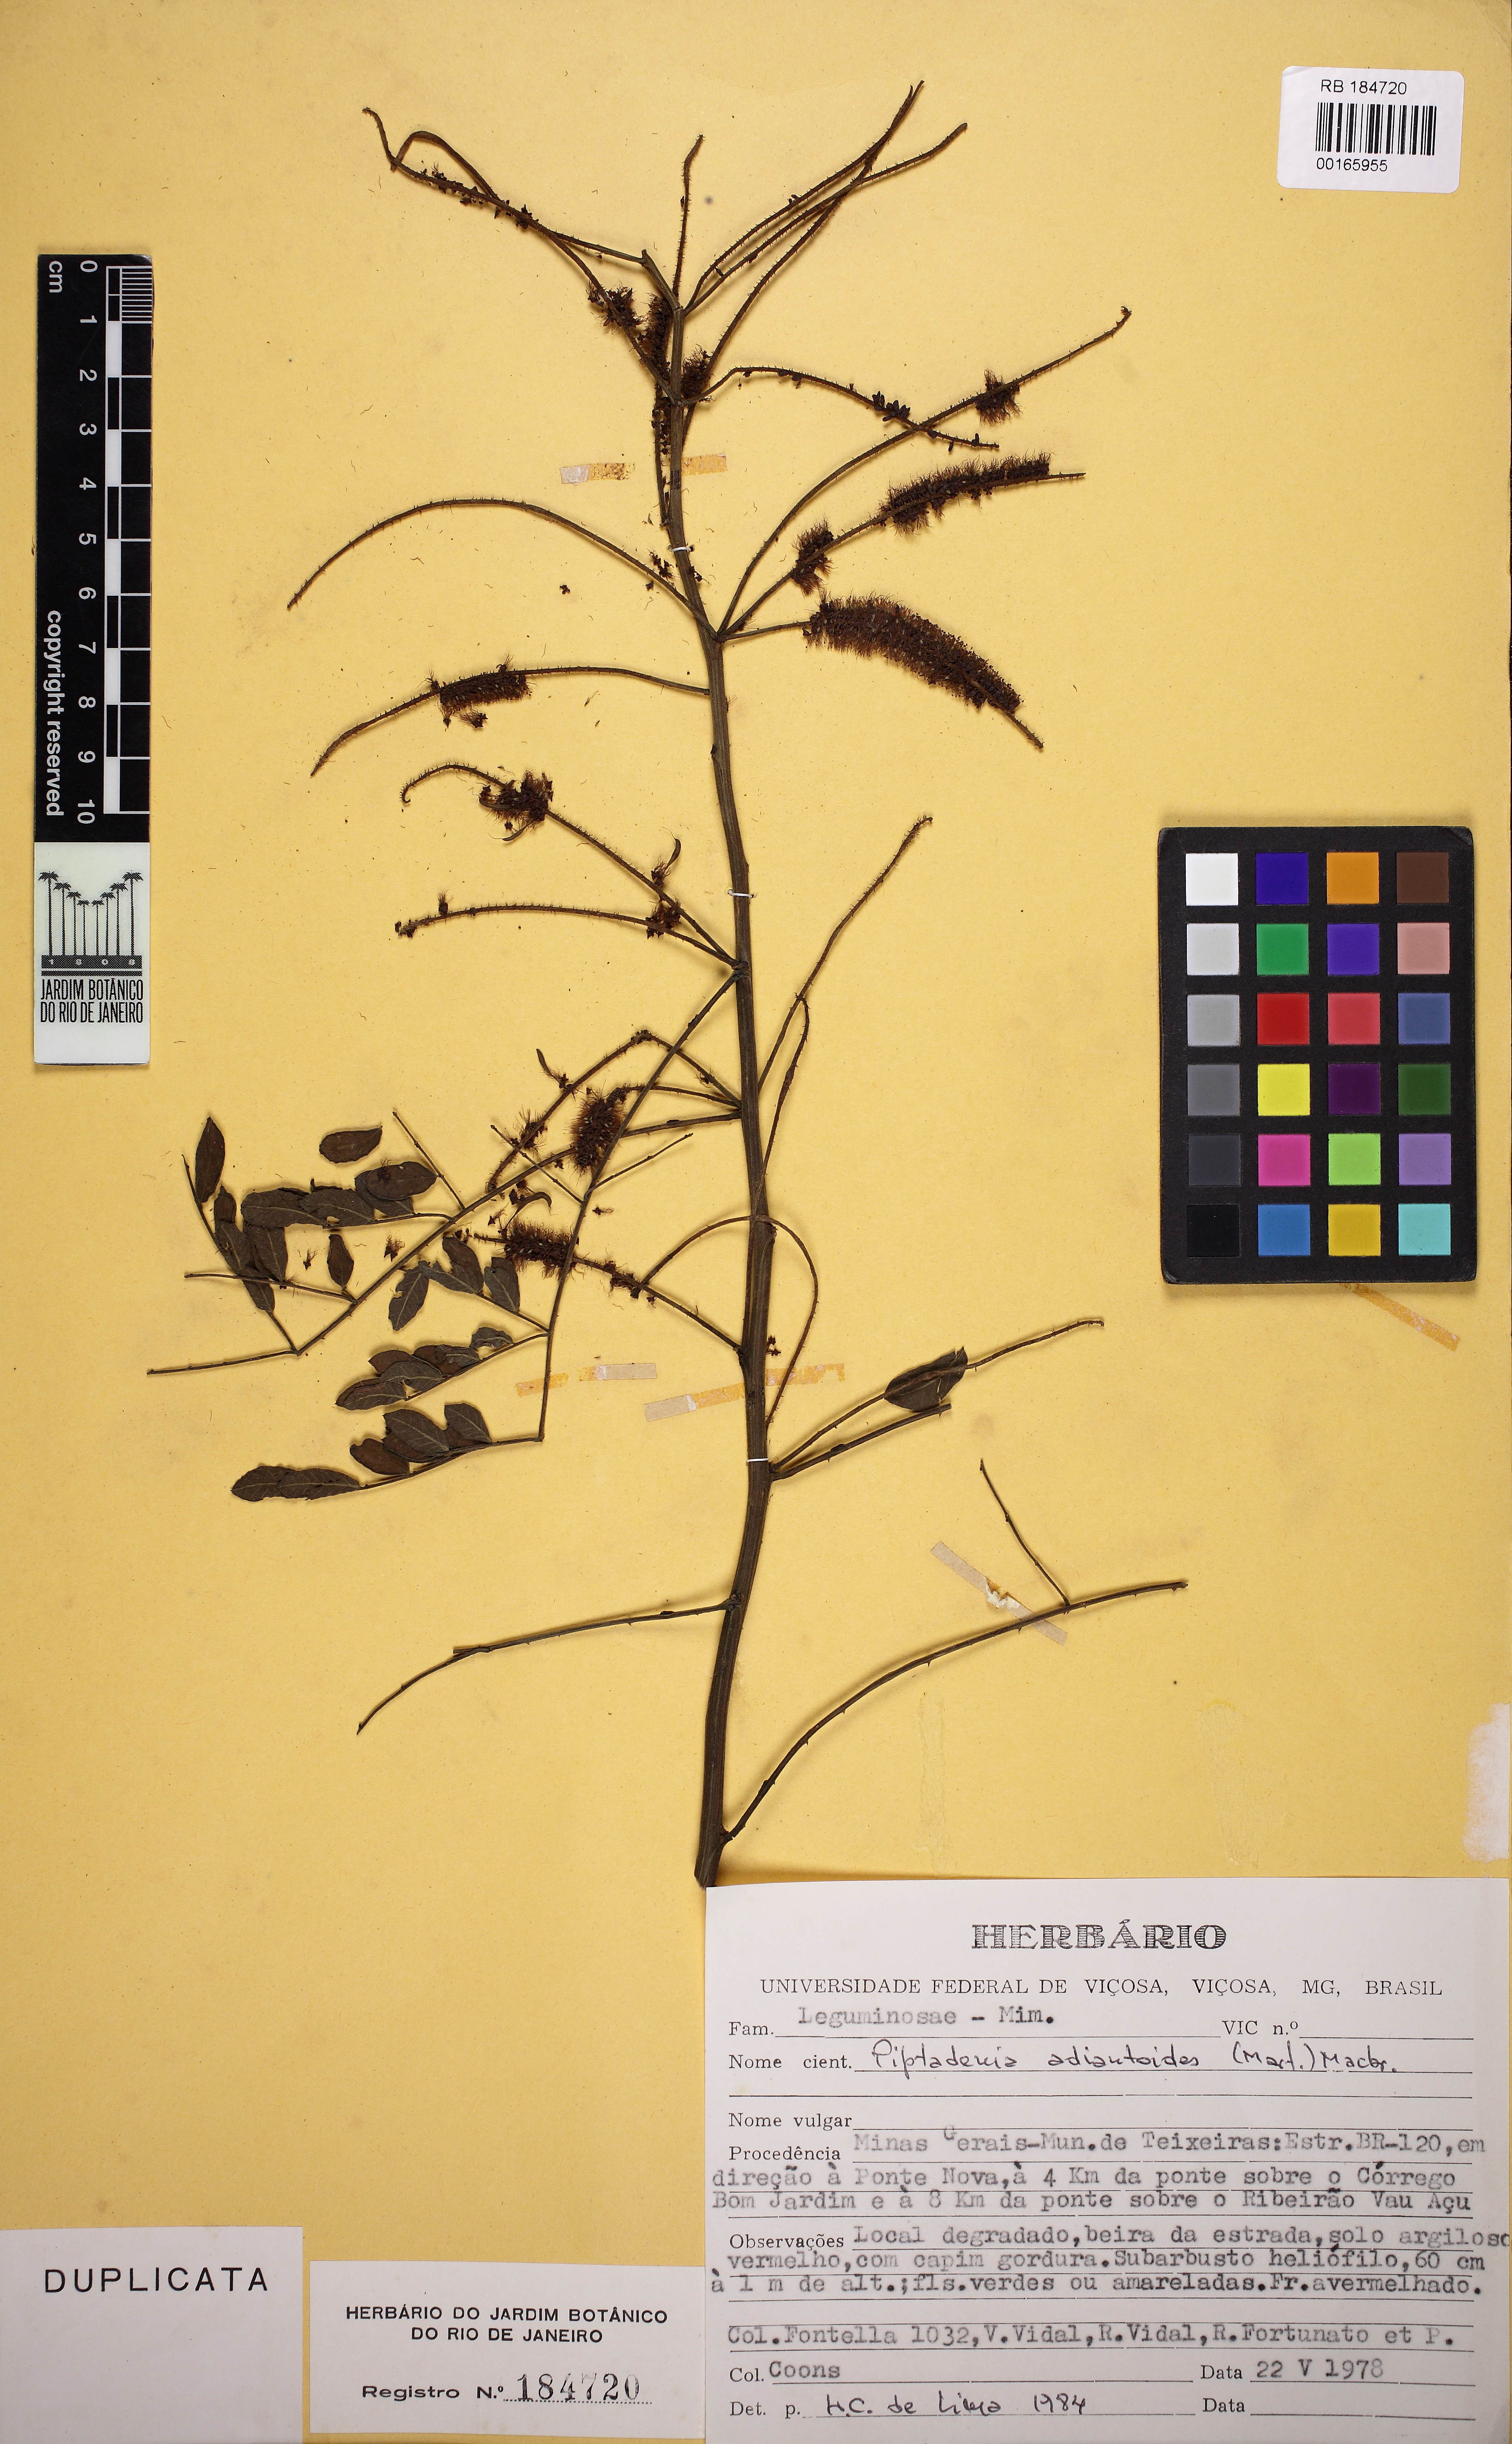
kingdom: Plantae
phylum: Tracheophyta
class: Magnoliopsida
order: Fabales
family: Fabaceae
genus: Piptadenia
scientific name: Piptadenia adiantoides
